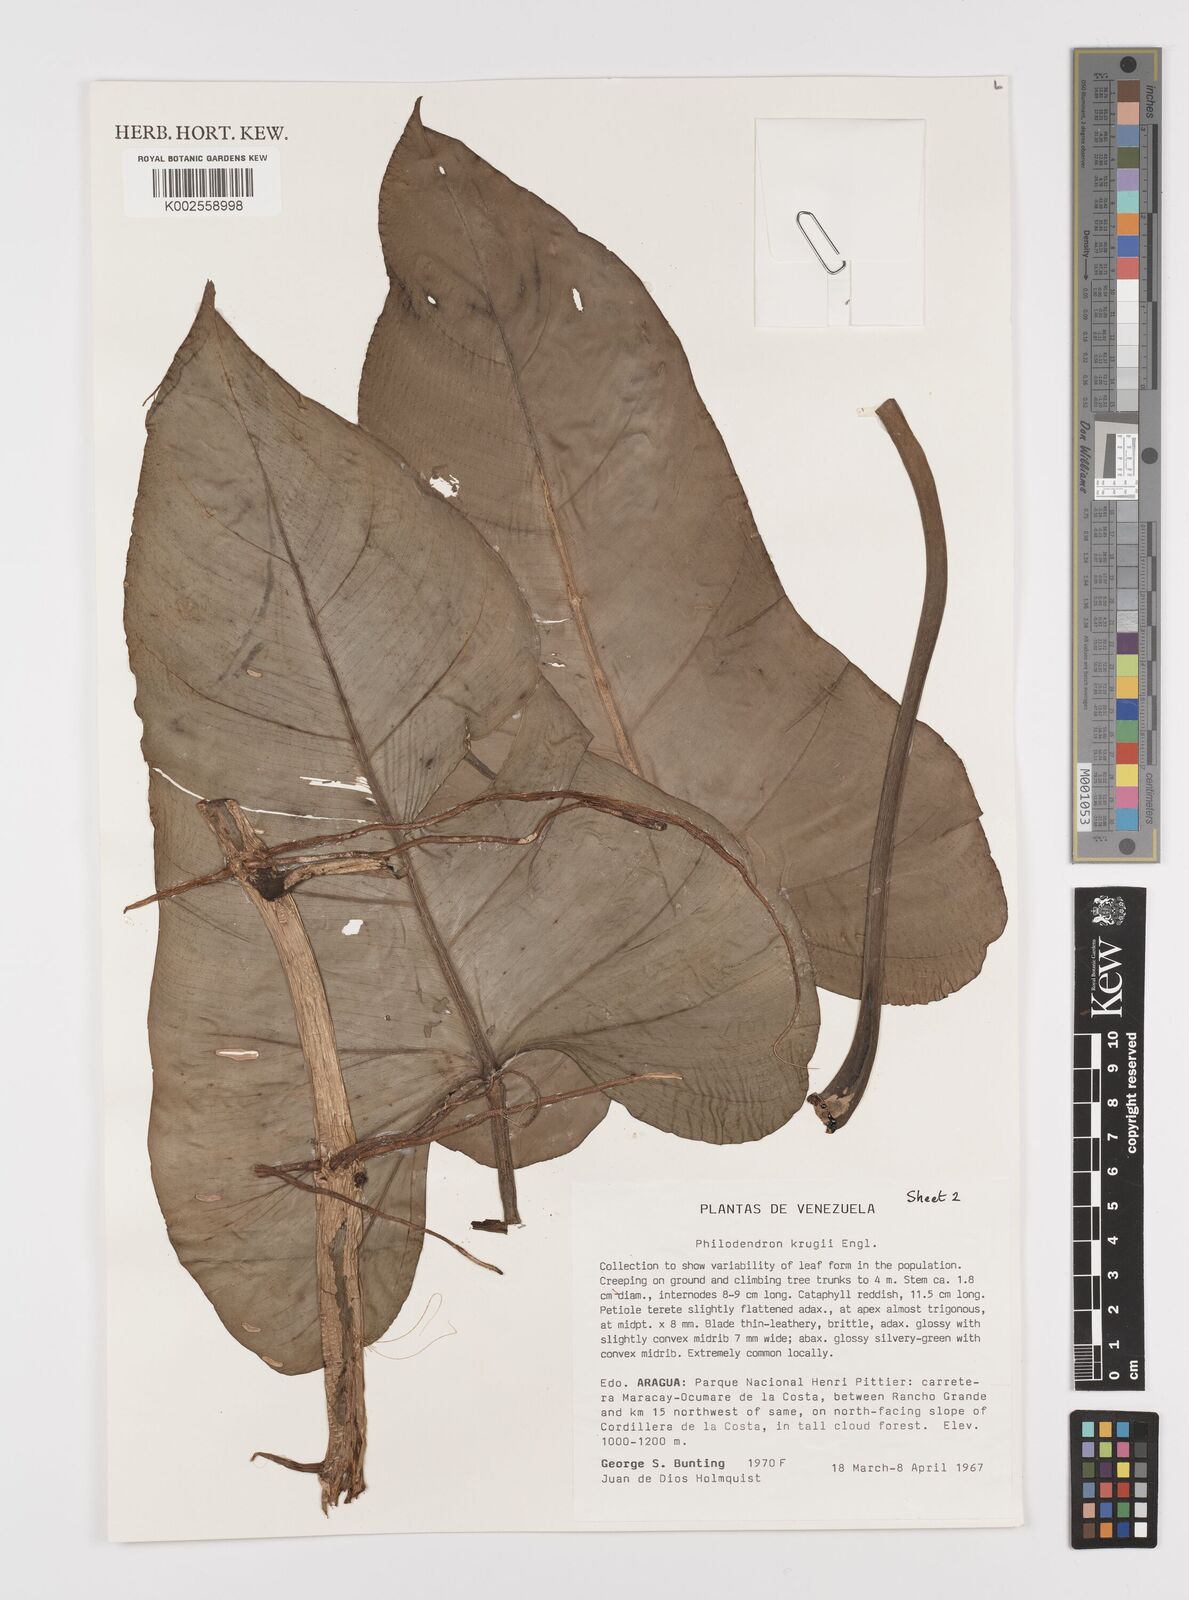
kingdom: Plantae
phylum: Tracheophyta
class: Liliopsida
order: Alismatales
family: Araceae
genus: Philodendron
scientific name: Philodendron krugii
